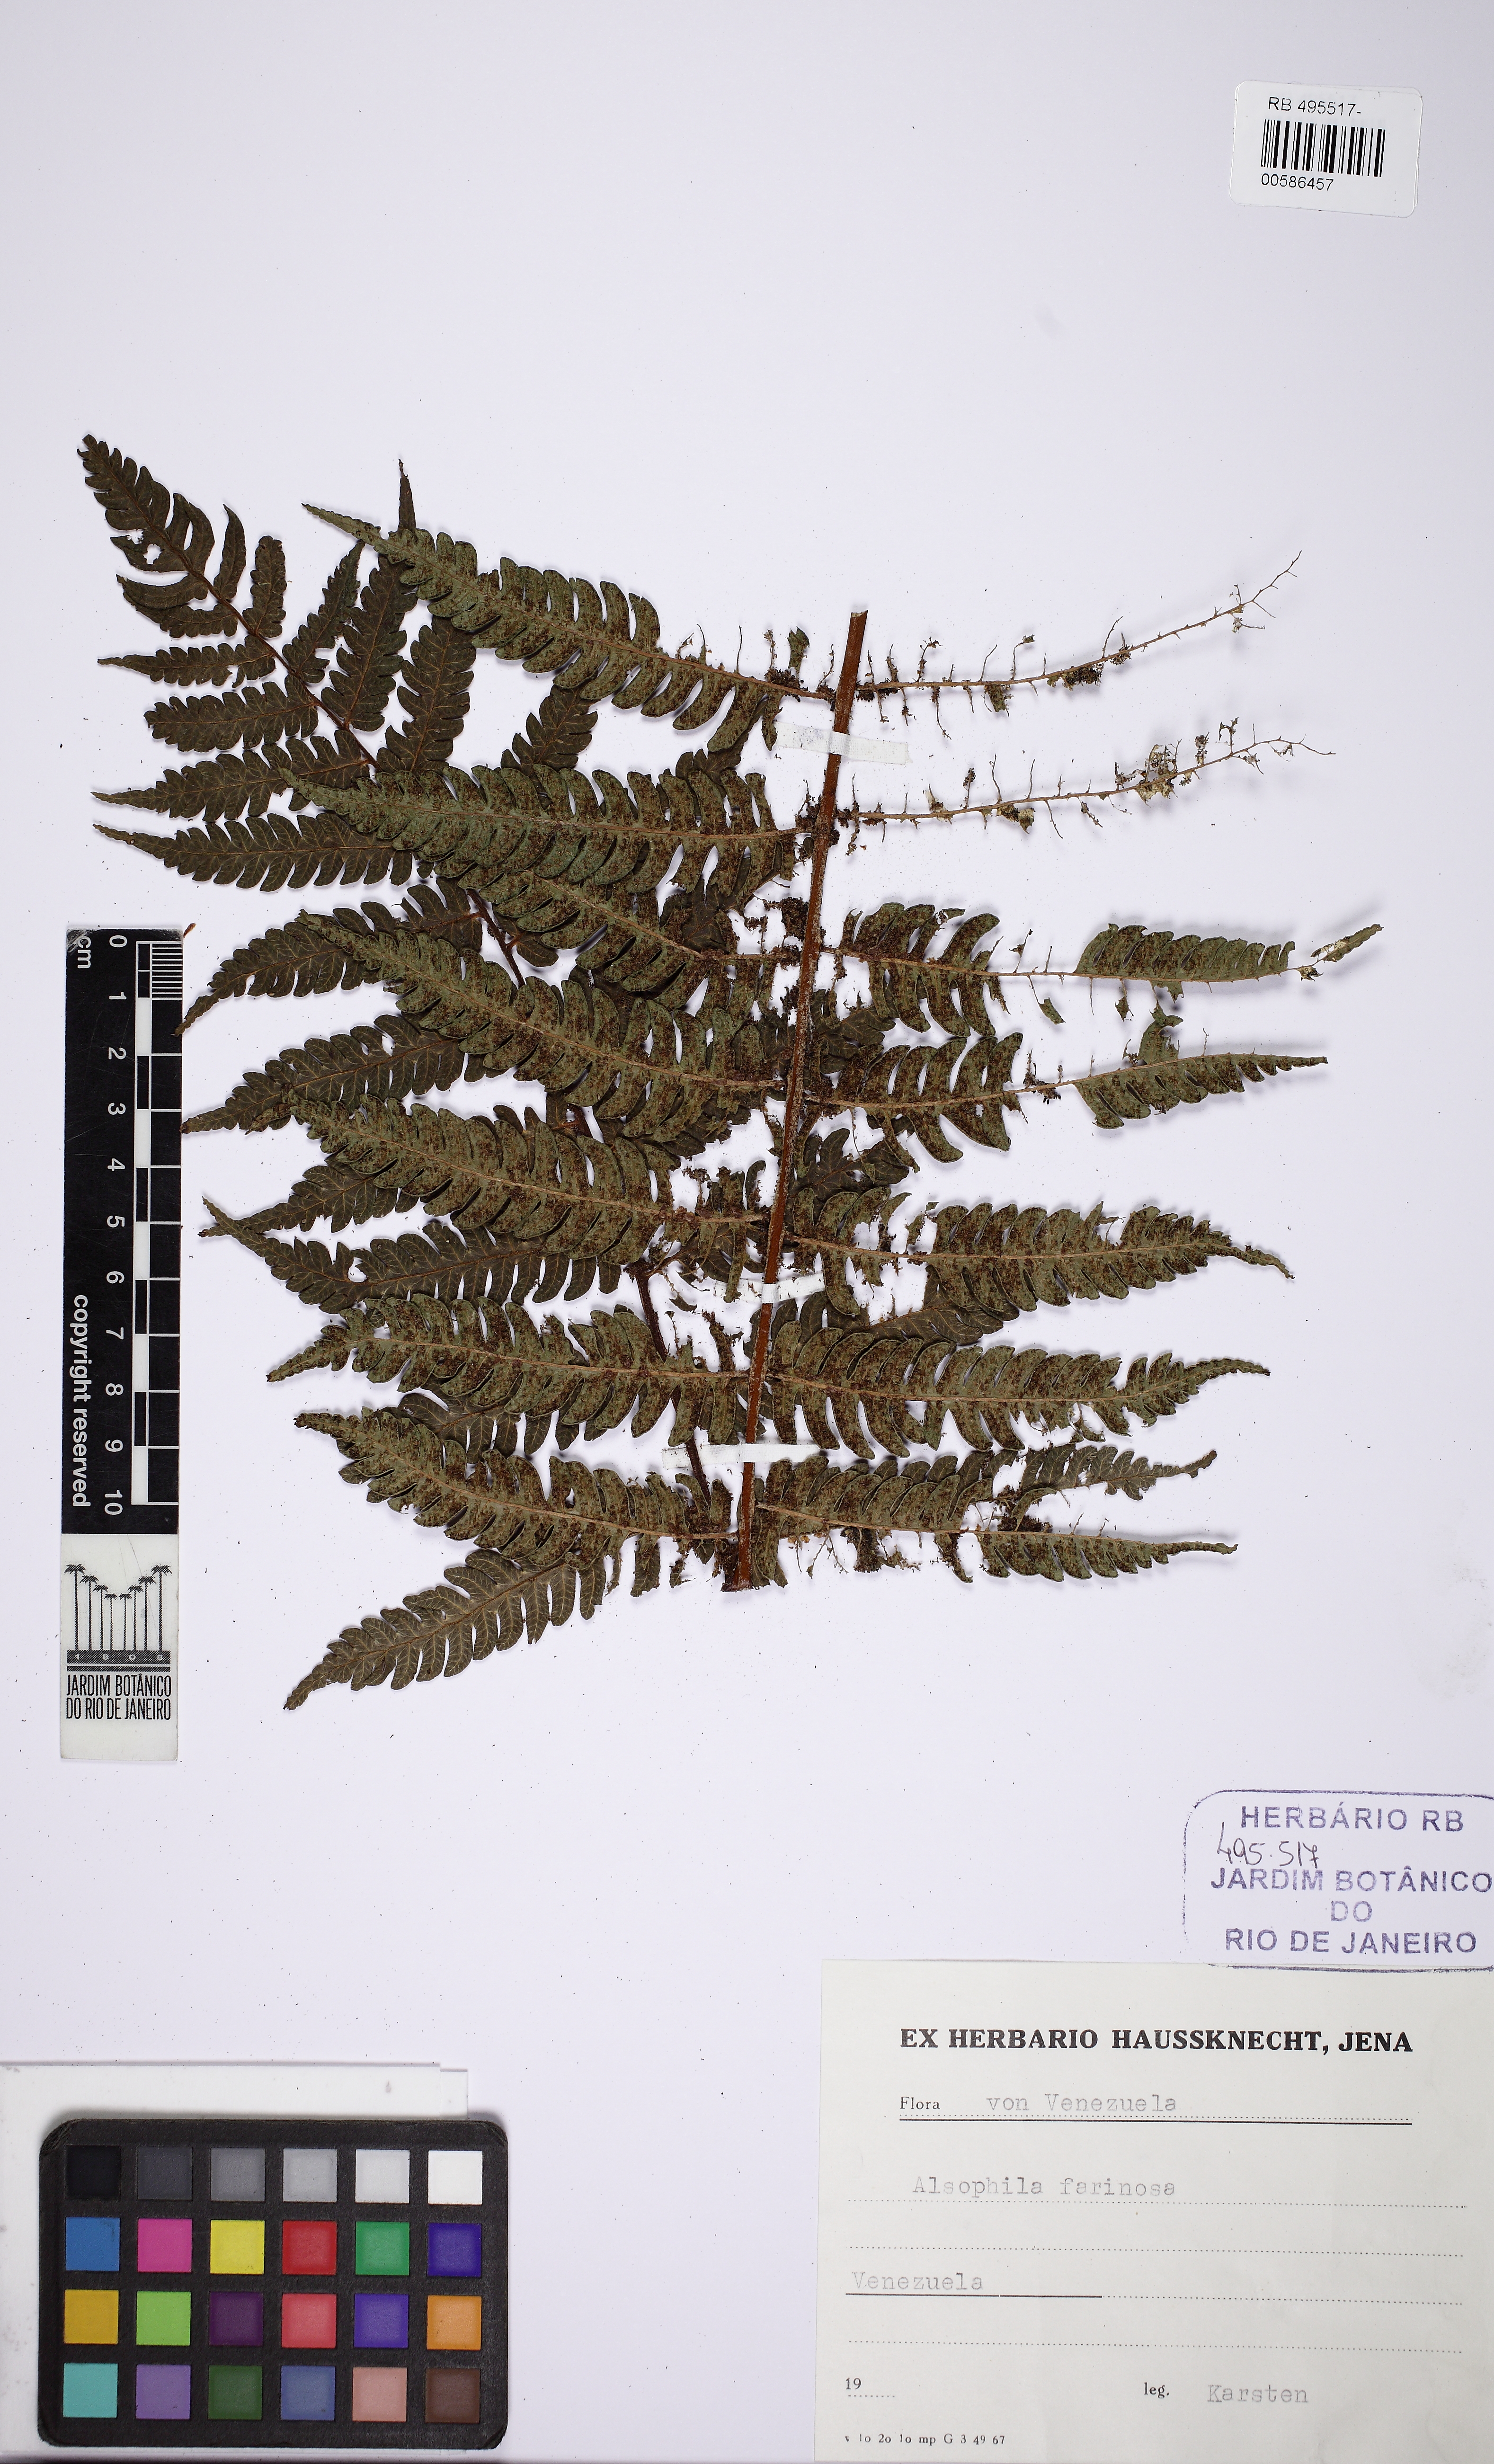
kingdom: Plantae
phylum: Tracheophyta
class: Polypodiopsida
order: Cyatheales
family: Cyatheaceae
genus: Cyathea
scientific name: Cyathea gibbosa
